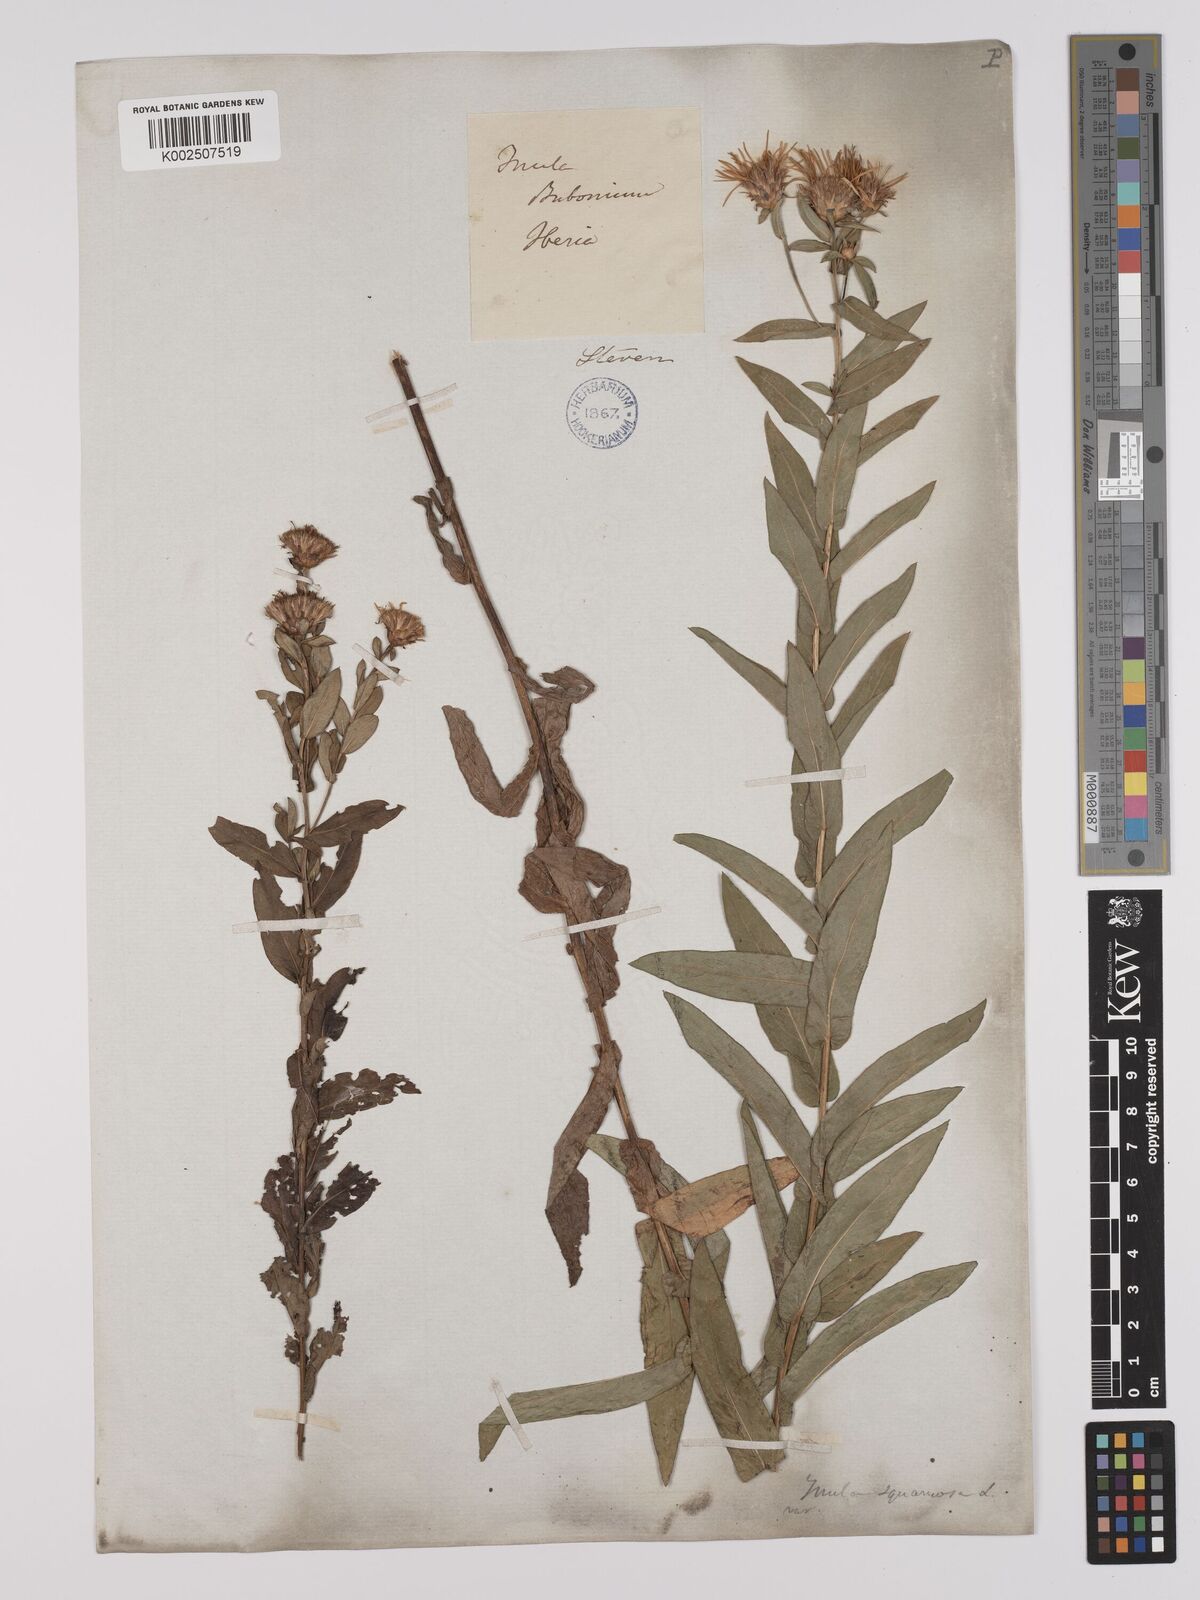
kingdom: Plantae
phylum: Tracheophyta
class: Magnoliopsida
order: Asterales
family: Asteraceae
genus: Pentanema
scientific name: Pentanema spiraeifolium
